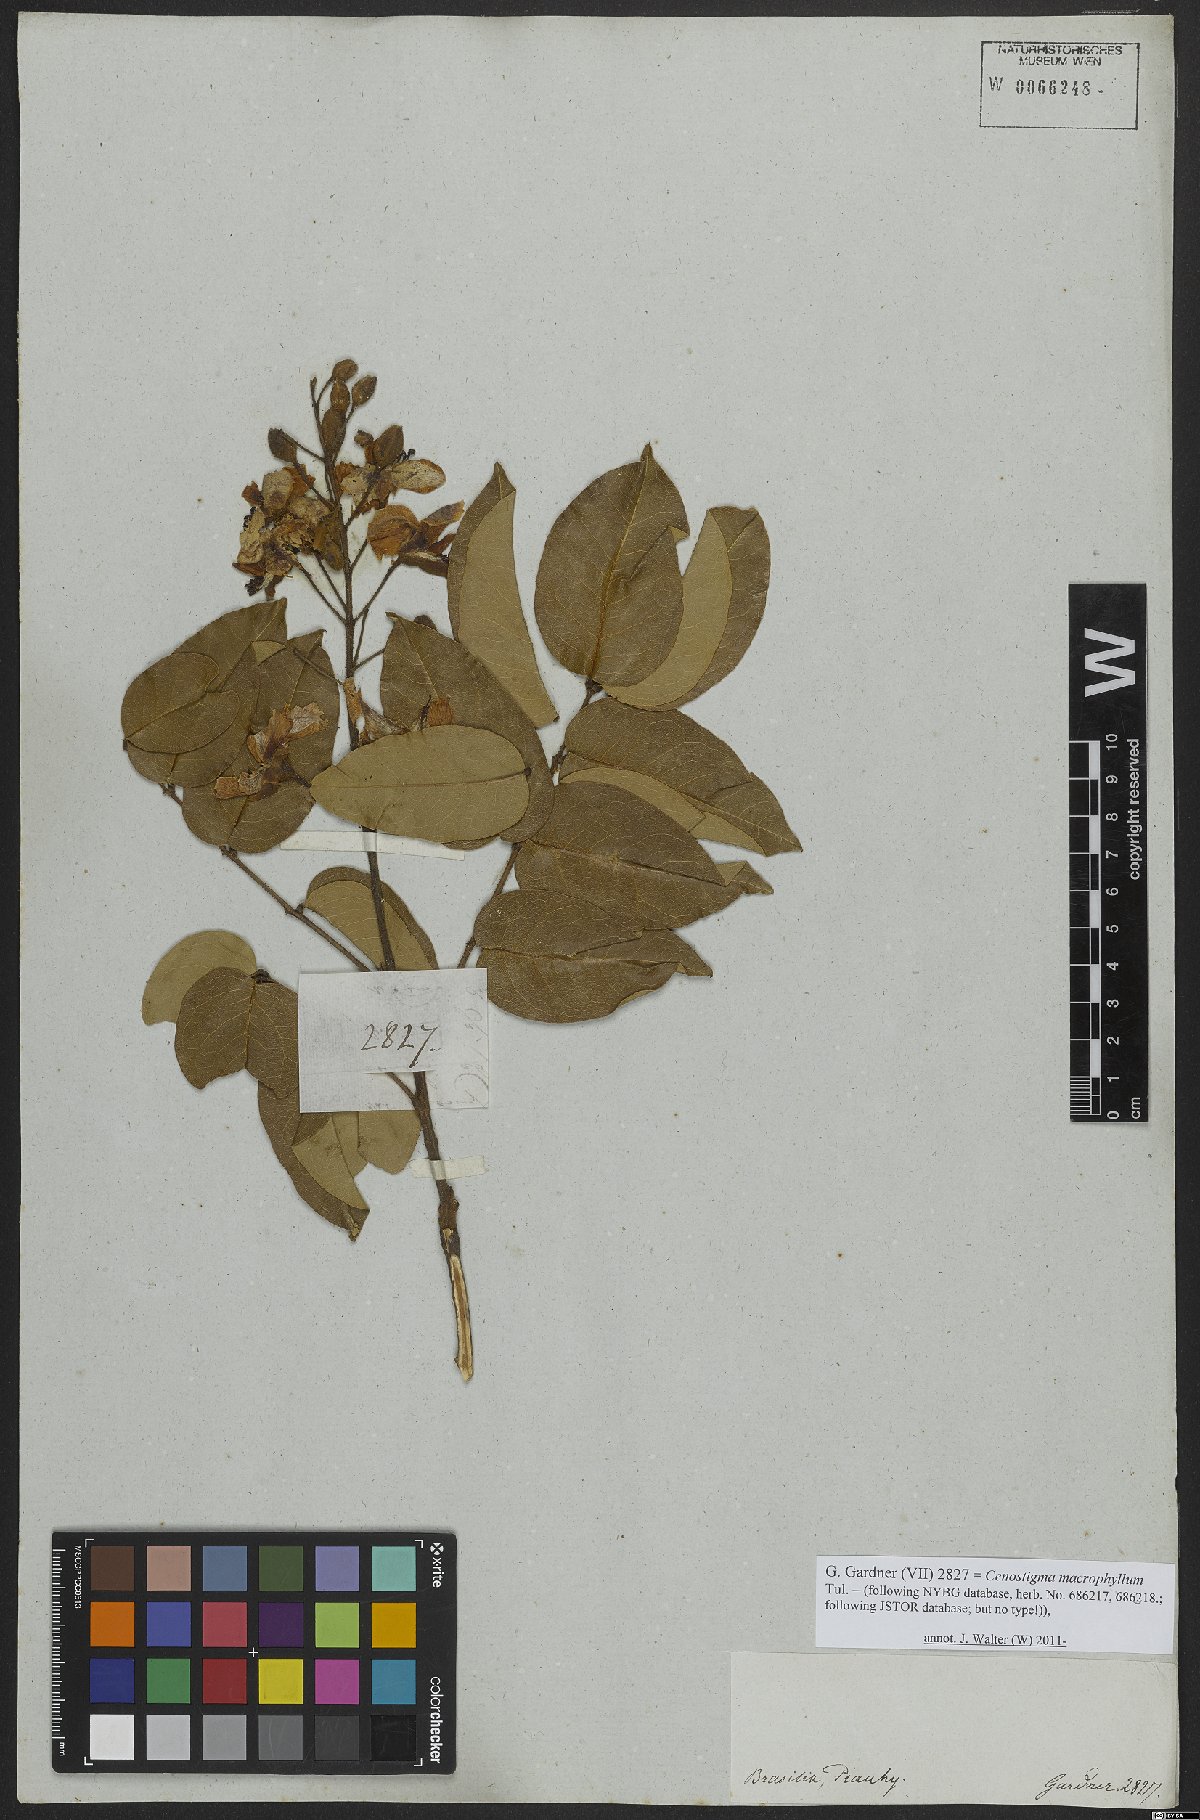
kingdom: Plantae
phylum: Tracheophyta
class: Magnoliopsida
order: Fabales
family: Fabaceae
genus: Cenostigma
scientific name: Cenostigma macrophyllum
